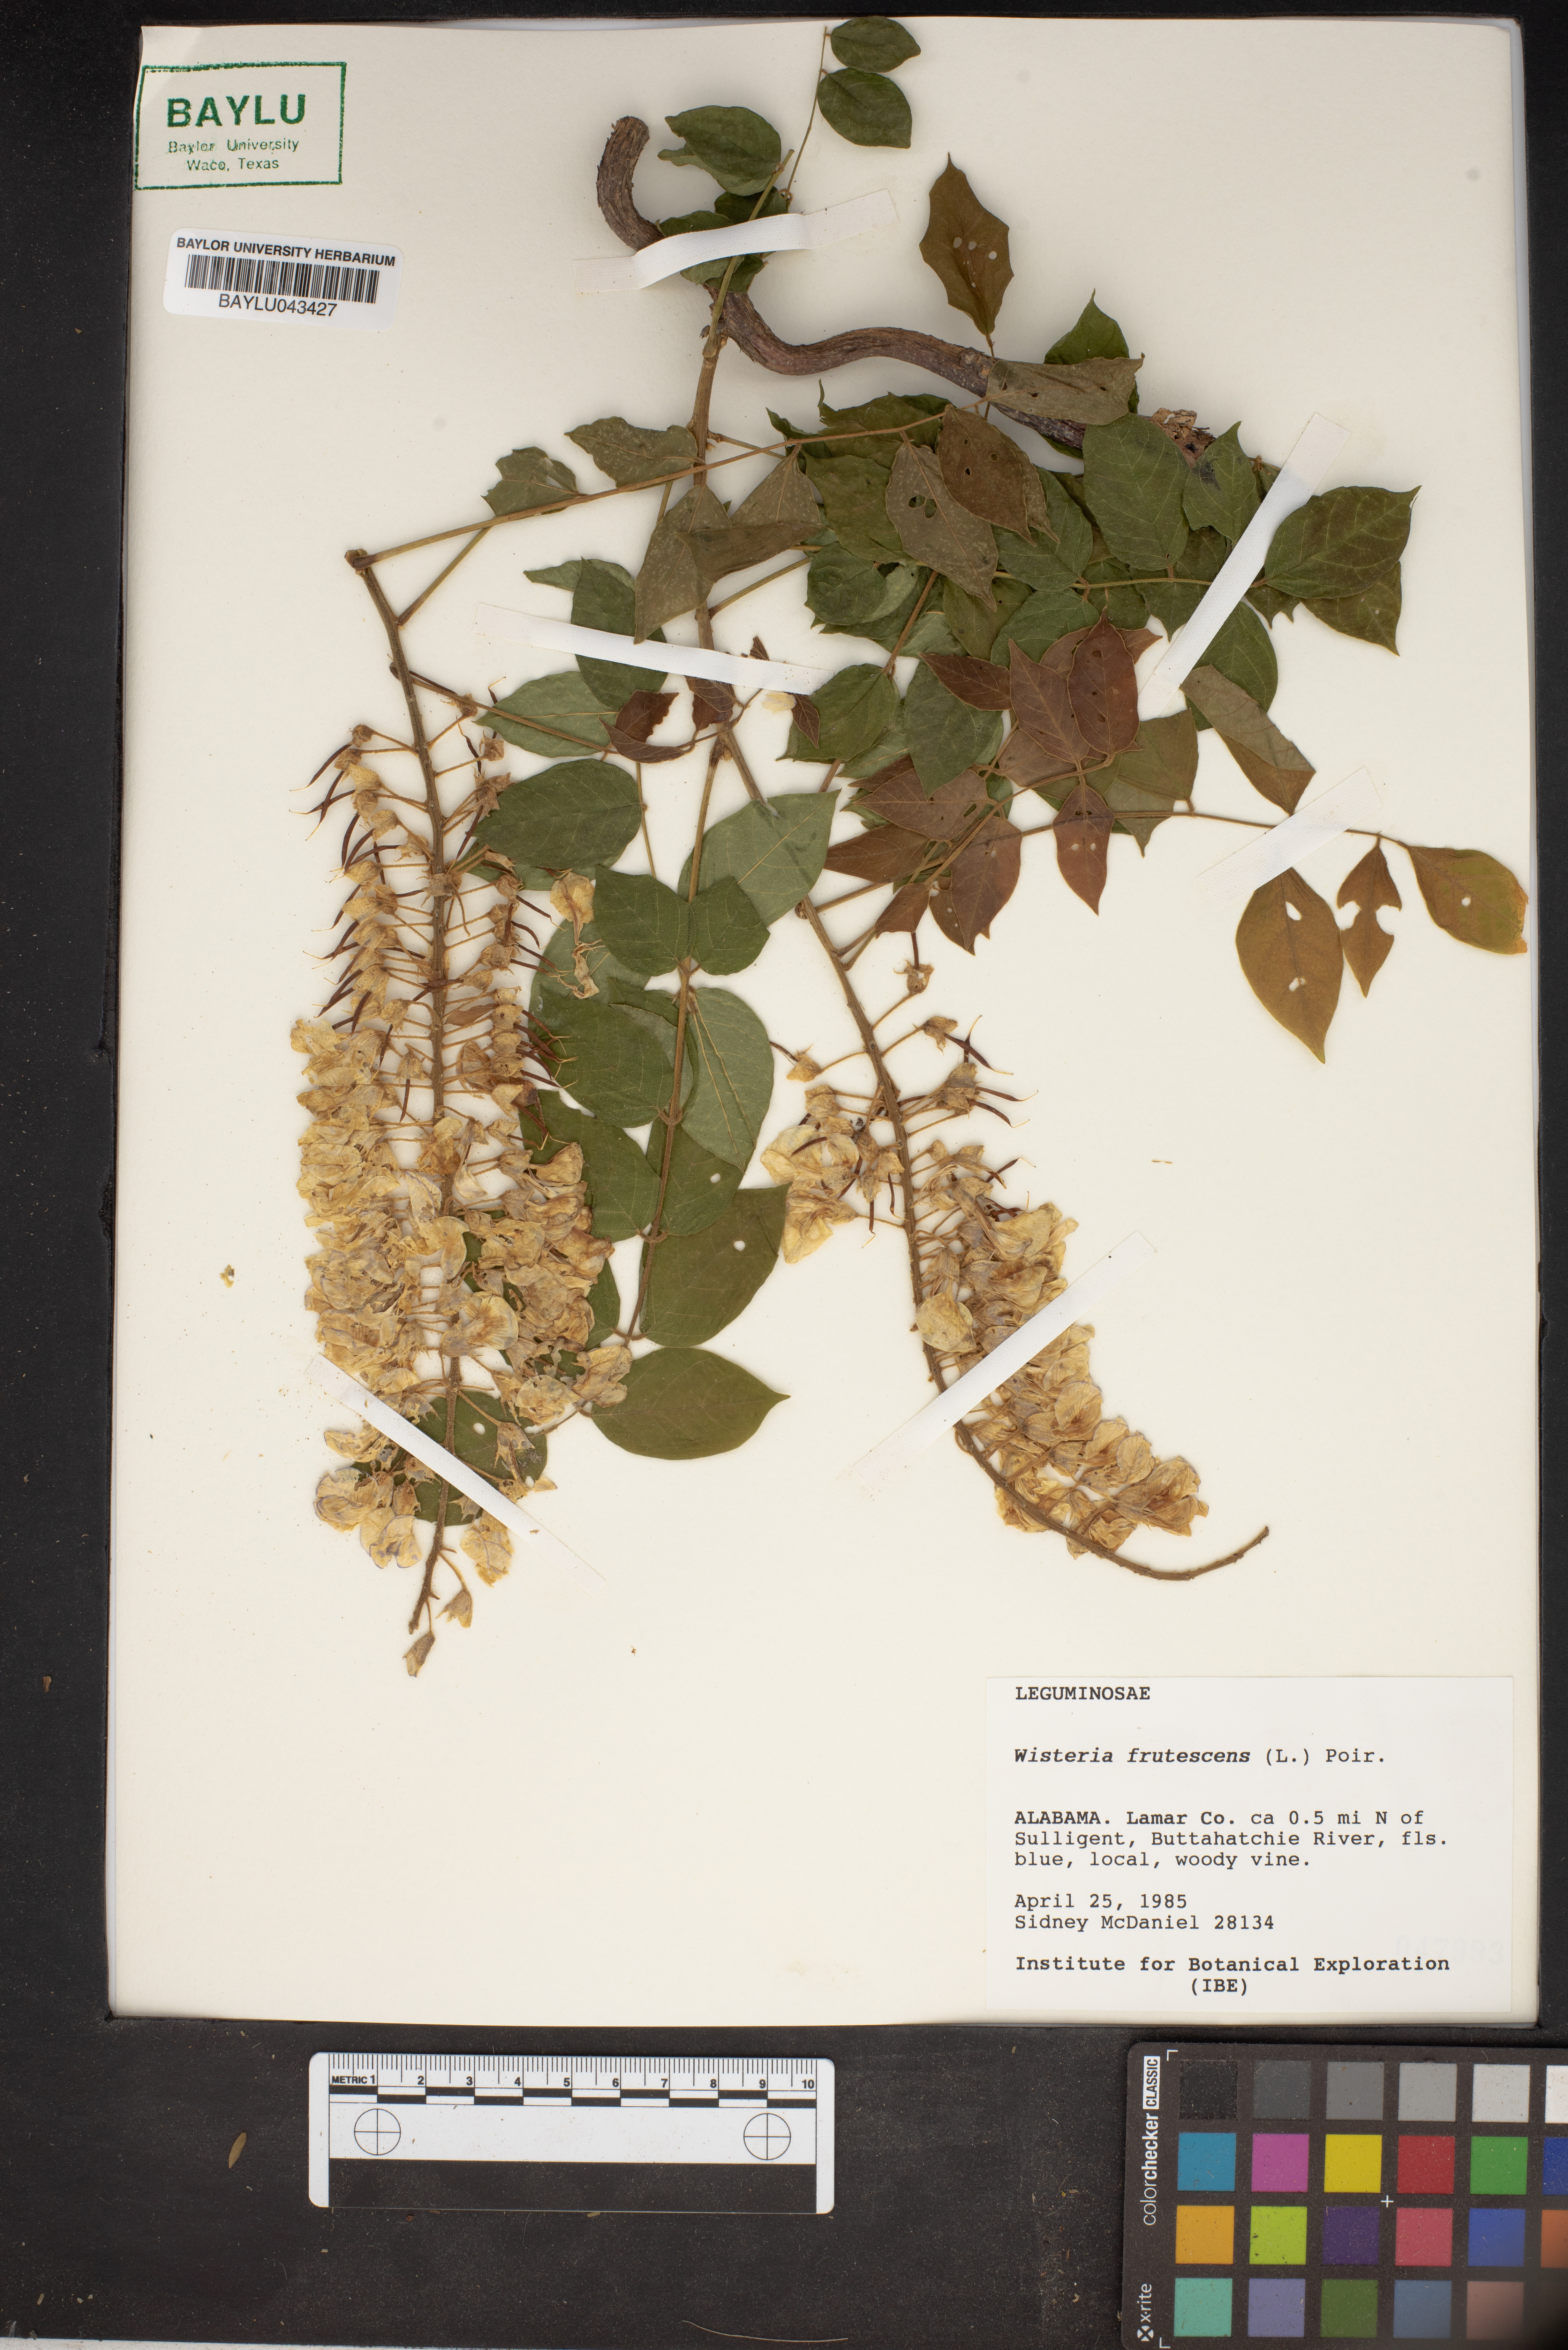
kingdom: Plantae
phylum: Tracheophyta
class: Magnoliopsida
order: Fabales
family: Fabaceae
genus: Wisteria
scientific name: Wisteria frutescens
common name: American wisteria
